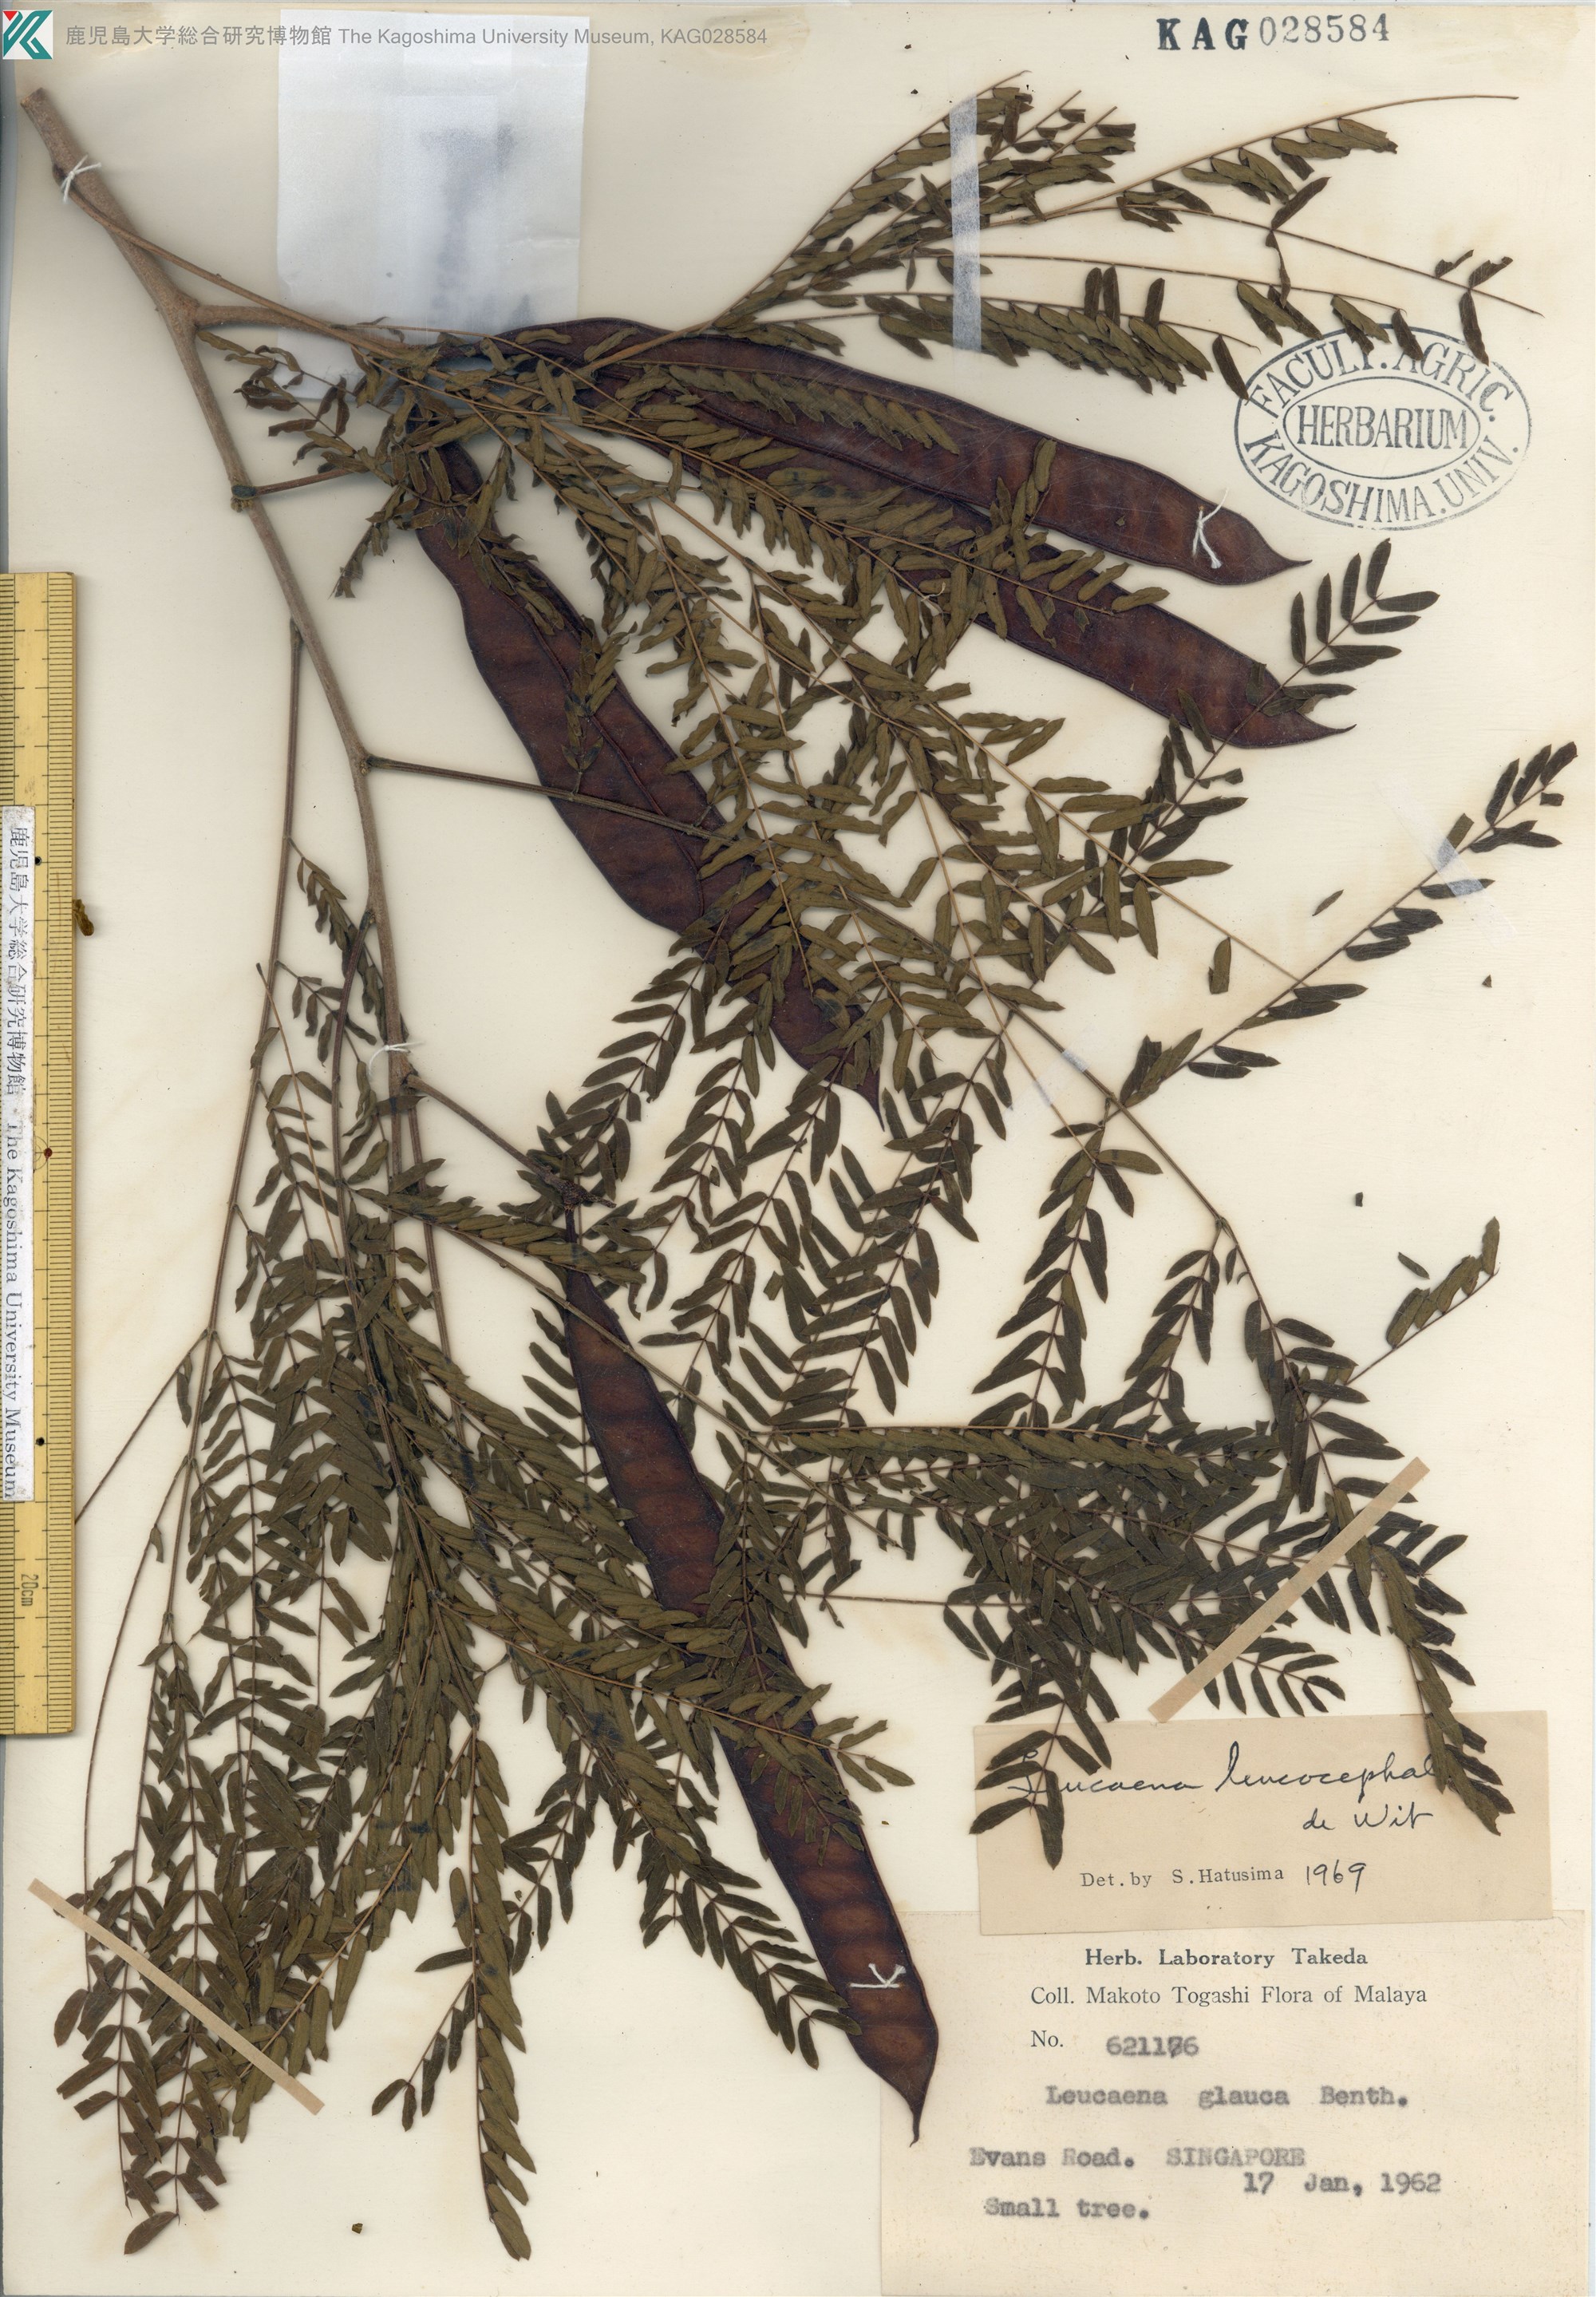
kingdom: Plantae
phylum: Tracheophyta
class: Magnoliopsida
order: Fabales
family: Fabaceae
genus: Leucaena
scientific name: Leucaena leucocephala
